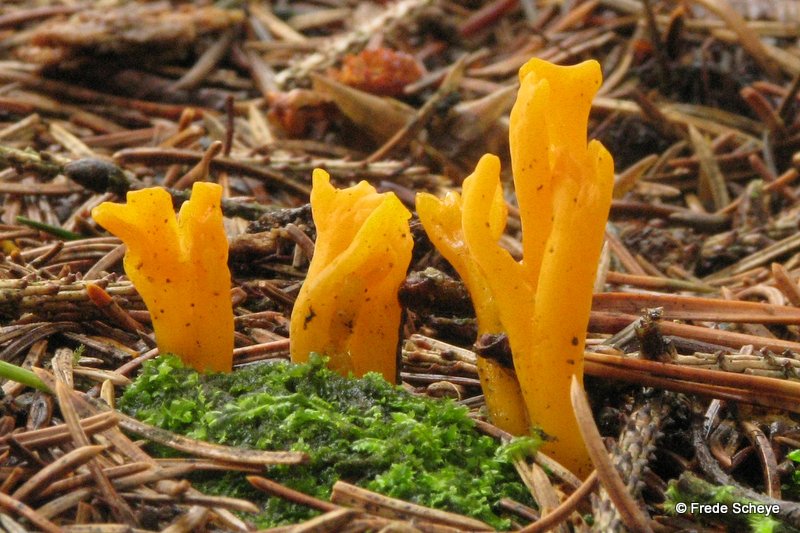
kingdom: Fungi
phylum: Basidiomycota
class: Dacrymycetes
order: Dacrymycetales
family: Dacrymycetaceae
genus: Calocera
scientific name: Calocera viscosa
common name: almindelig guldgaffel
